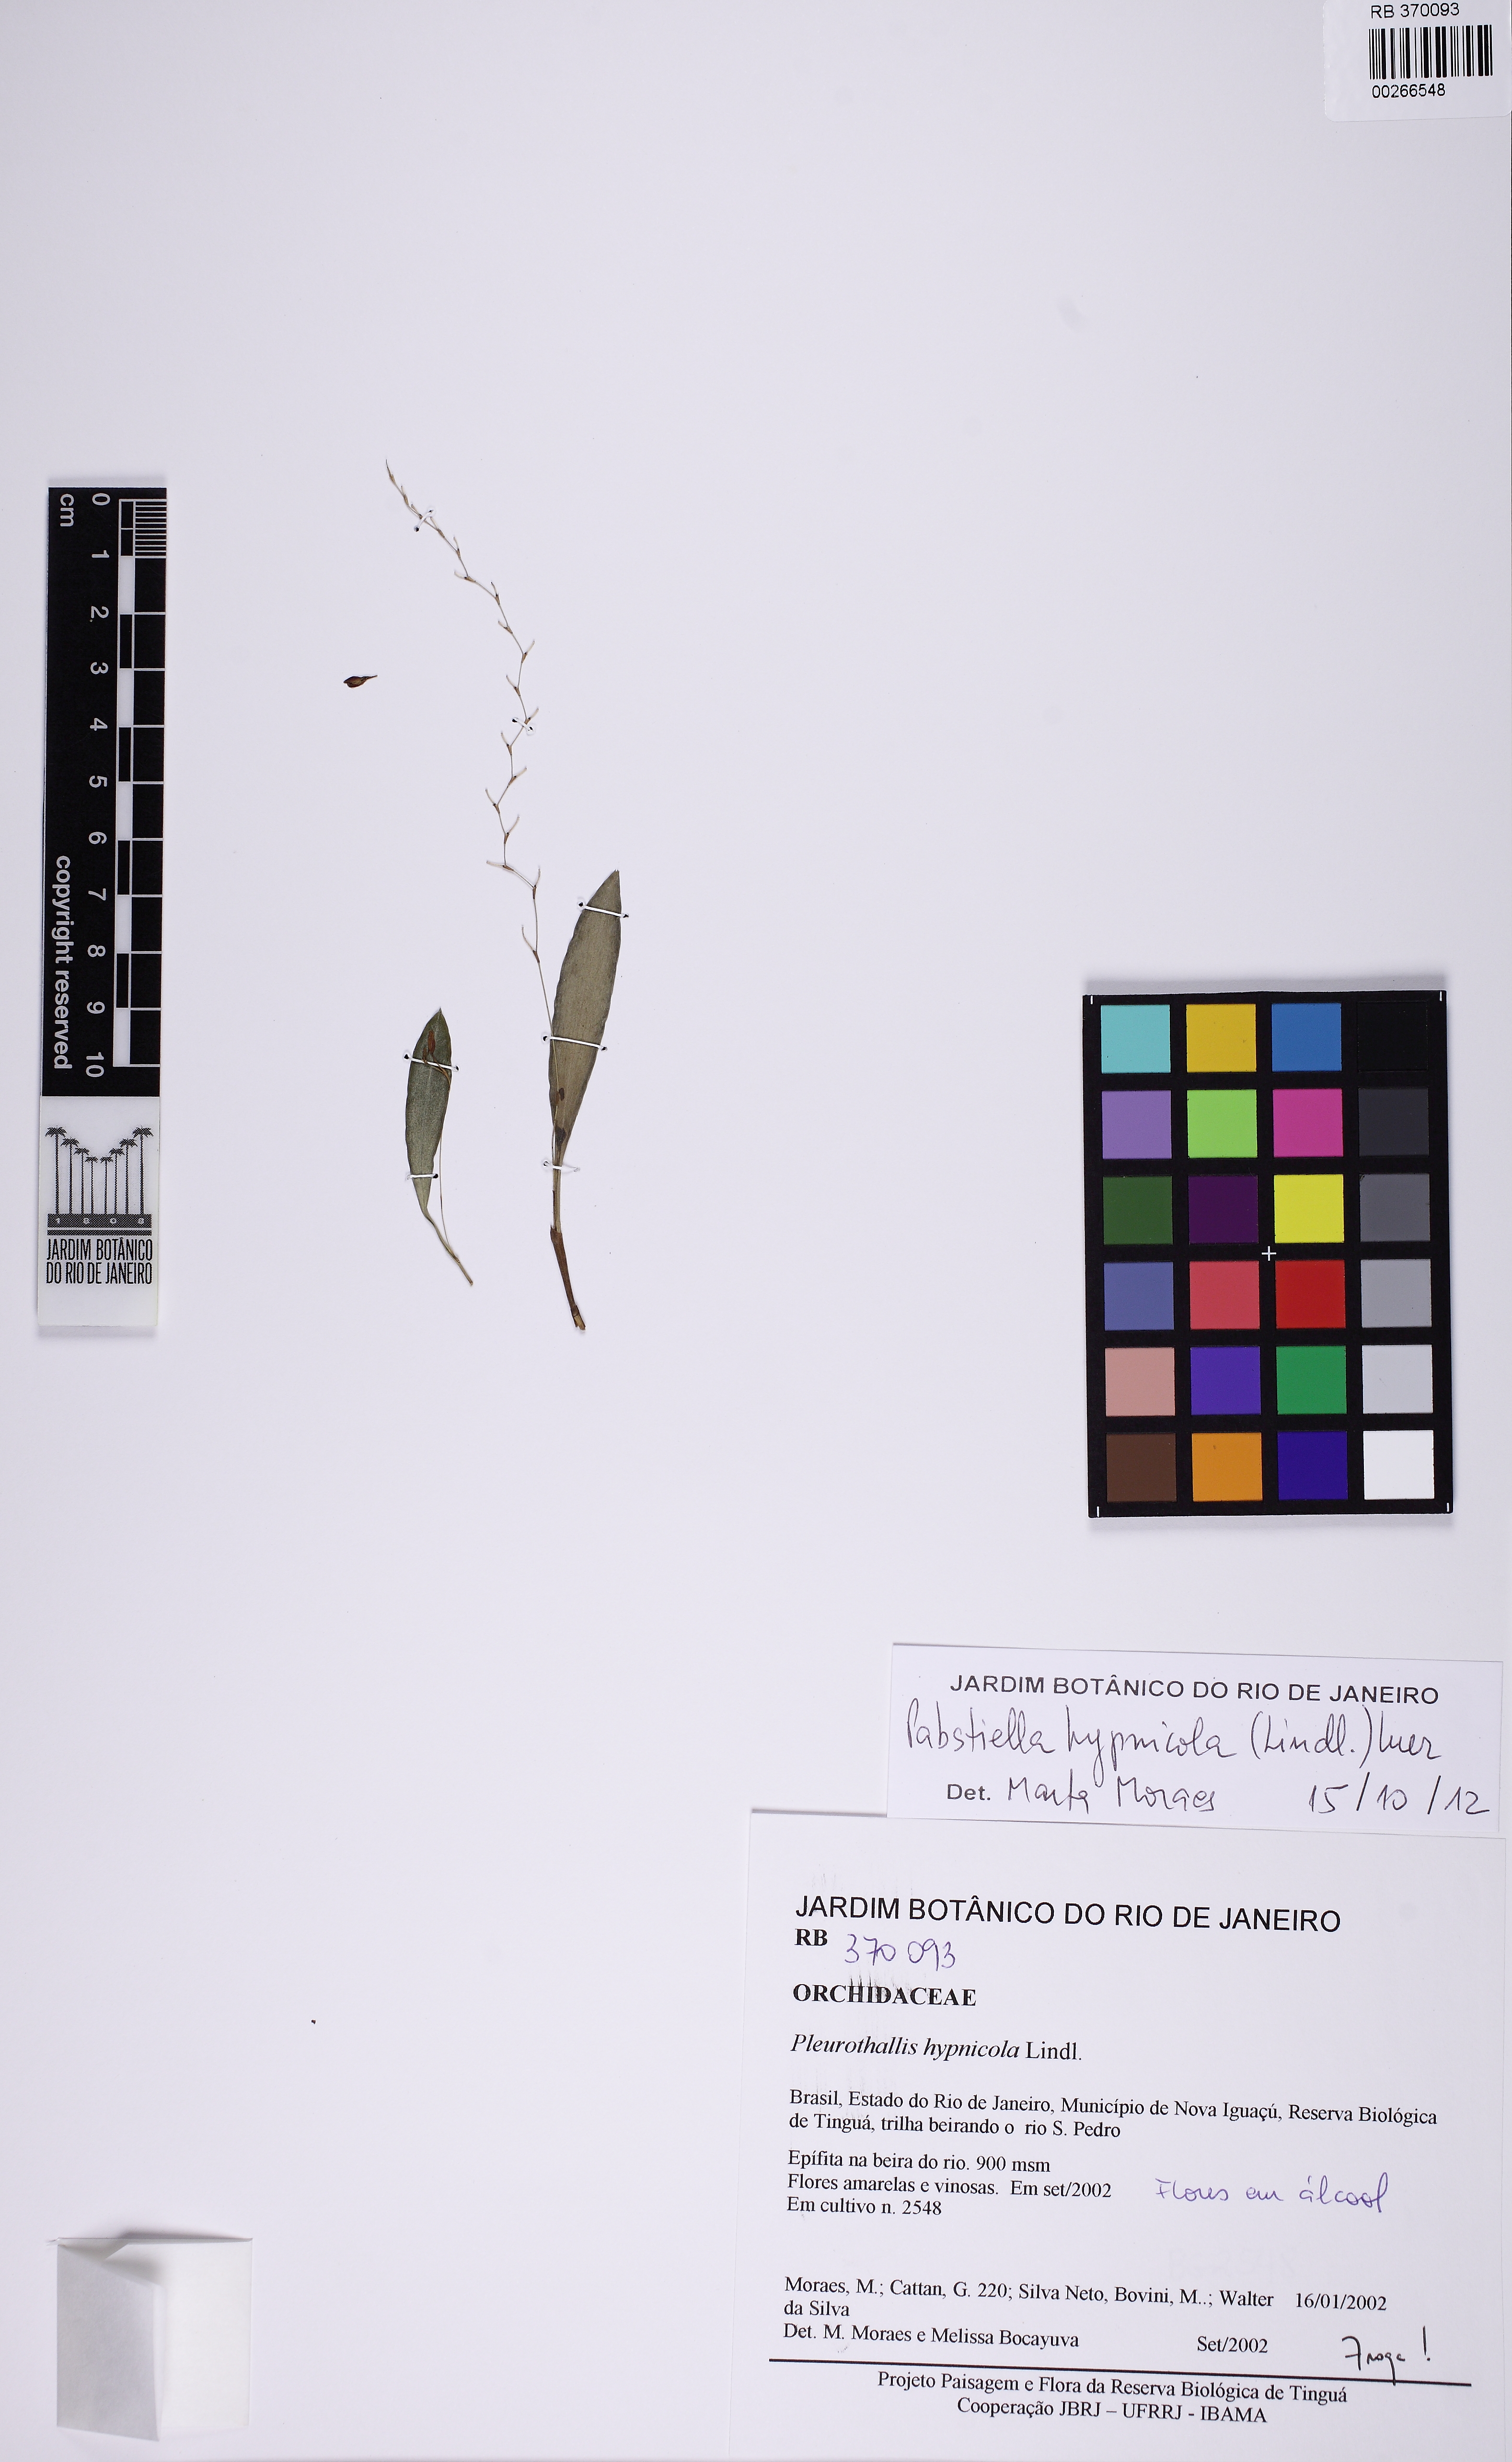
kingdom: Plantae
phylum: Tracheophyta
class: Liliopsida
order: Asparagales
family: Orchidaceae
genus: Pabstiella
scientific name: Pabstiella fusca
